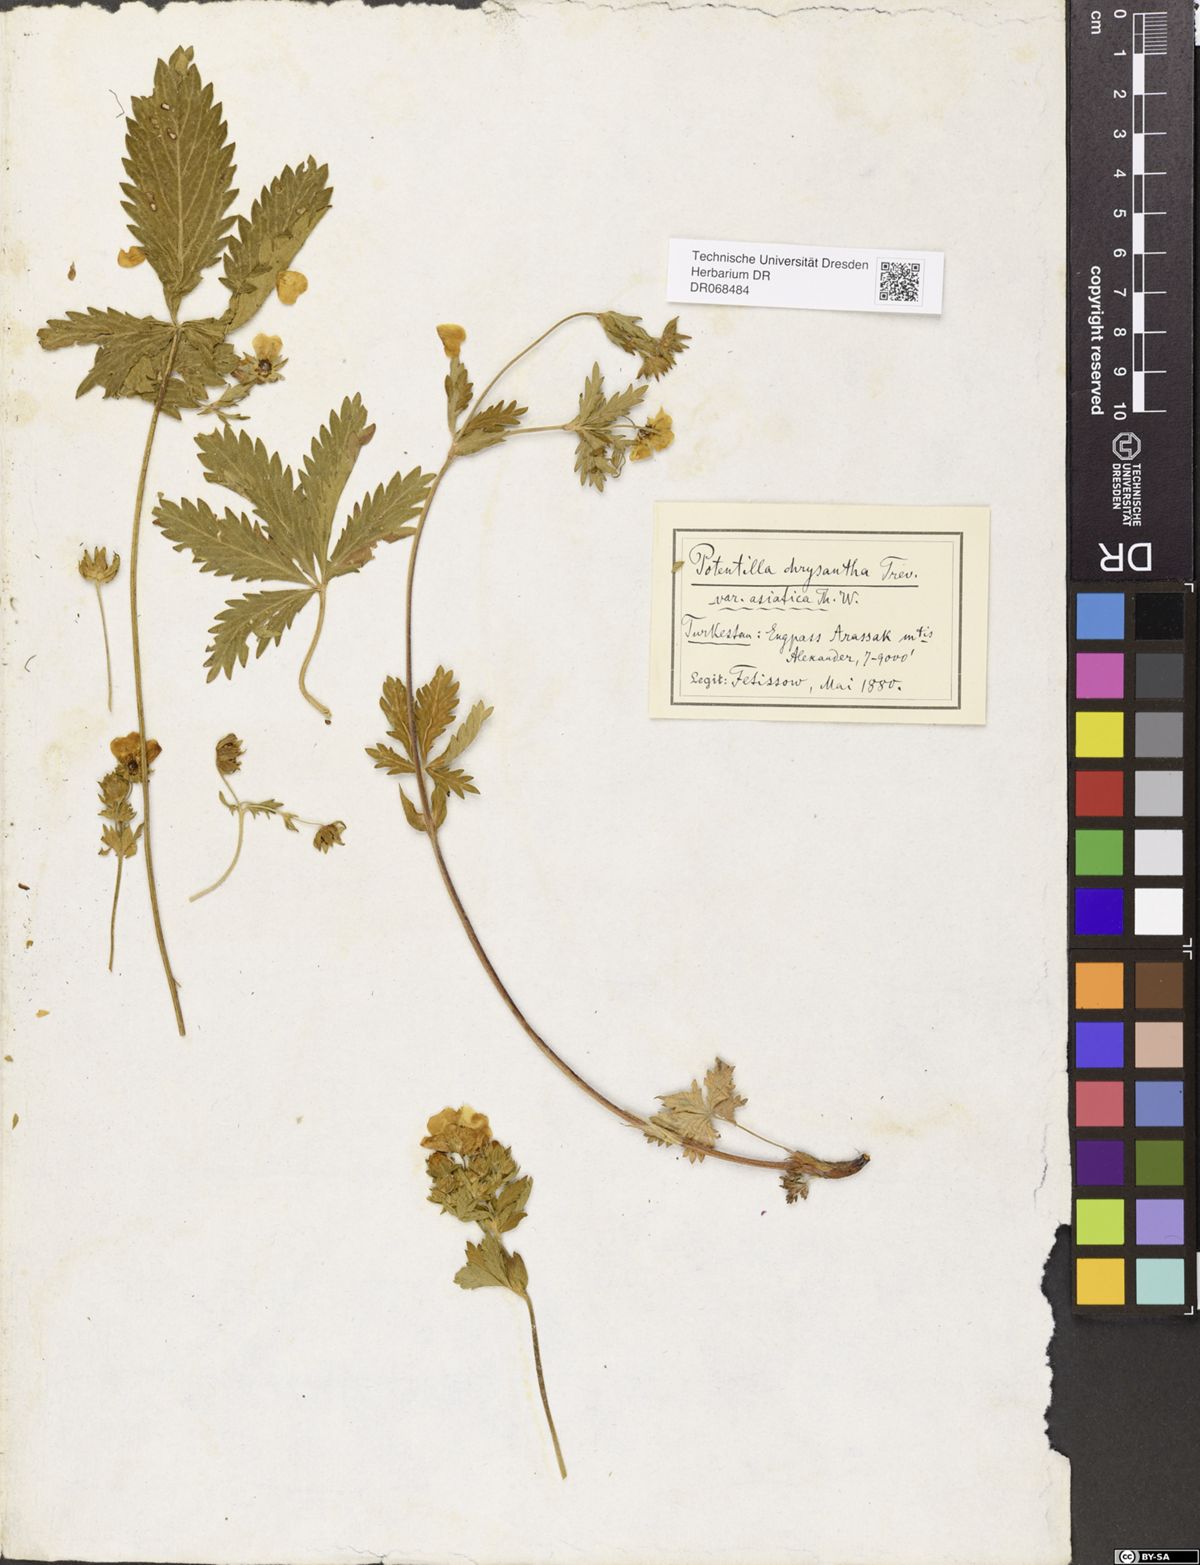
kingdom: Plantae
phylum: Tracheophyta
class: Magnoliopsida
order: Rosales
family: Rosaceae
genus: Potentilla
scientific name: Potentilla asiatica
